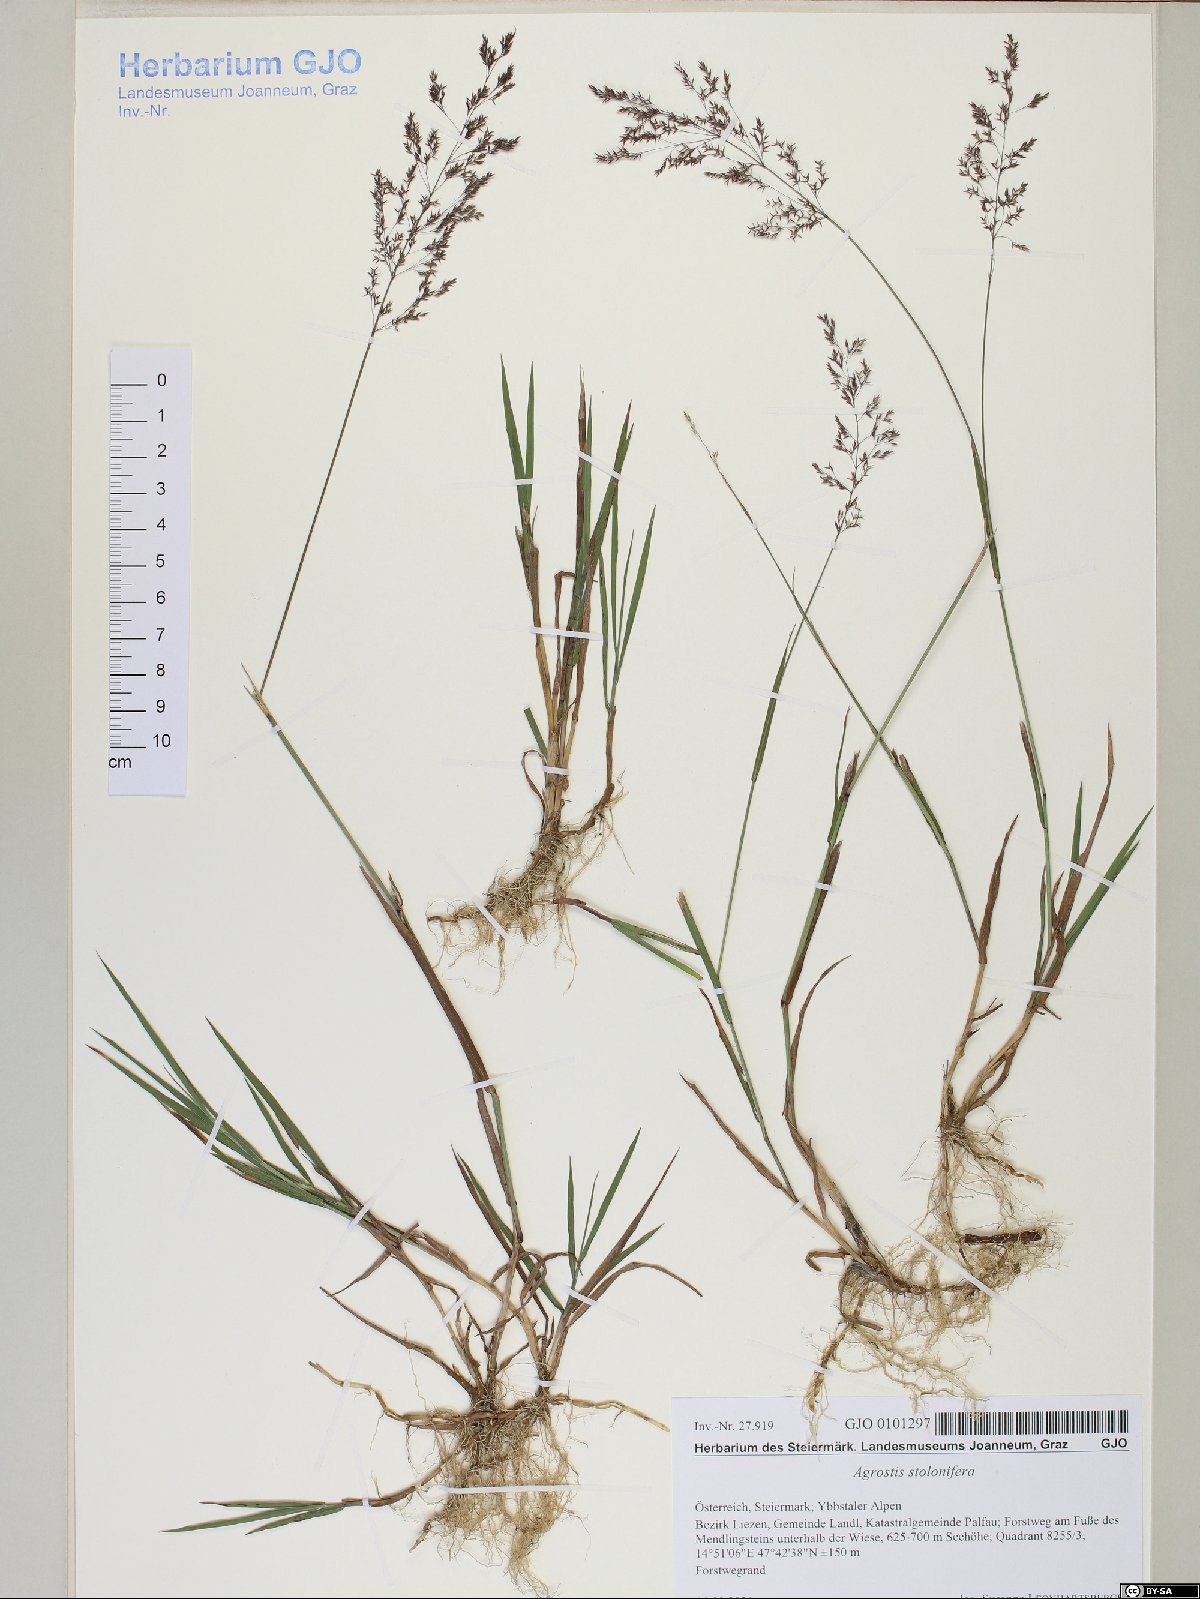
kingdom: Plantae
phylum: Tracheophyta
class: Liliopsida
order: Poales
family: Poaceae
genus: Agrostis
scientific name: Agrostis stolonifera
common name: Creeping bentgrass
